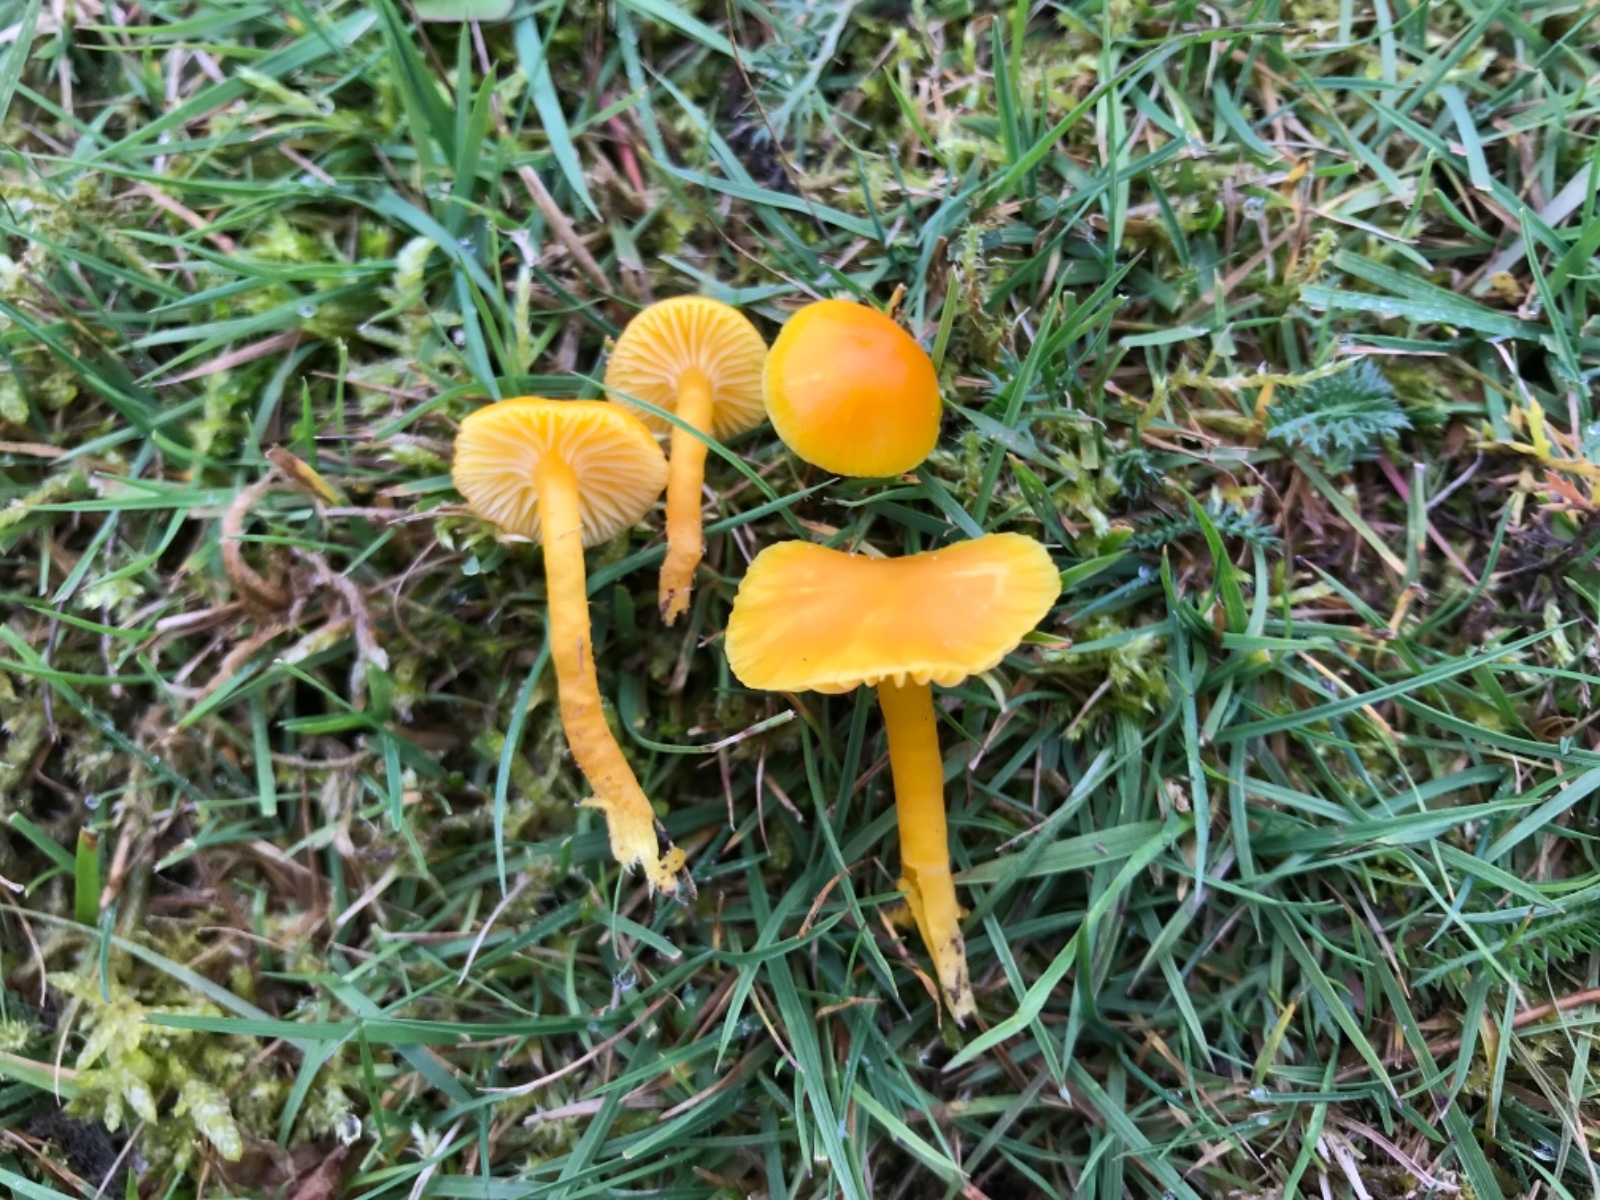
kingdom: Fungi
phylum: Basidiomycota
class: Agaricomycetes
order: Agaricales
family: Hygrophoraceae
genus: Hygrocybe
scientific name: Hygrocybe ceracea
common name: voksgul vokshat
